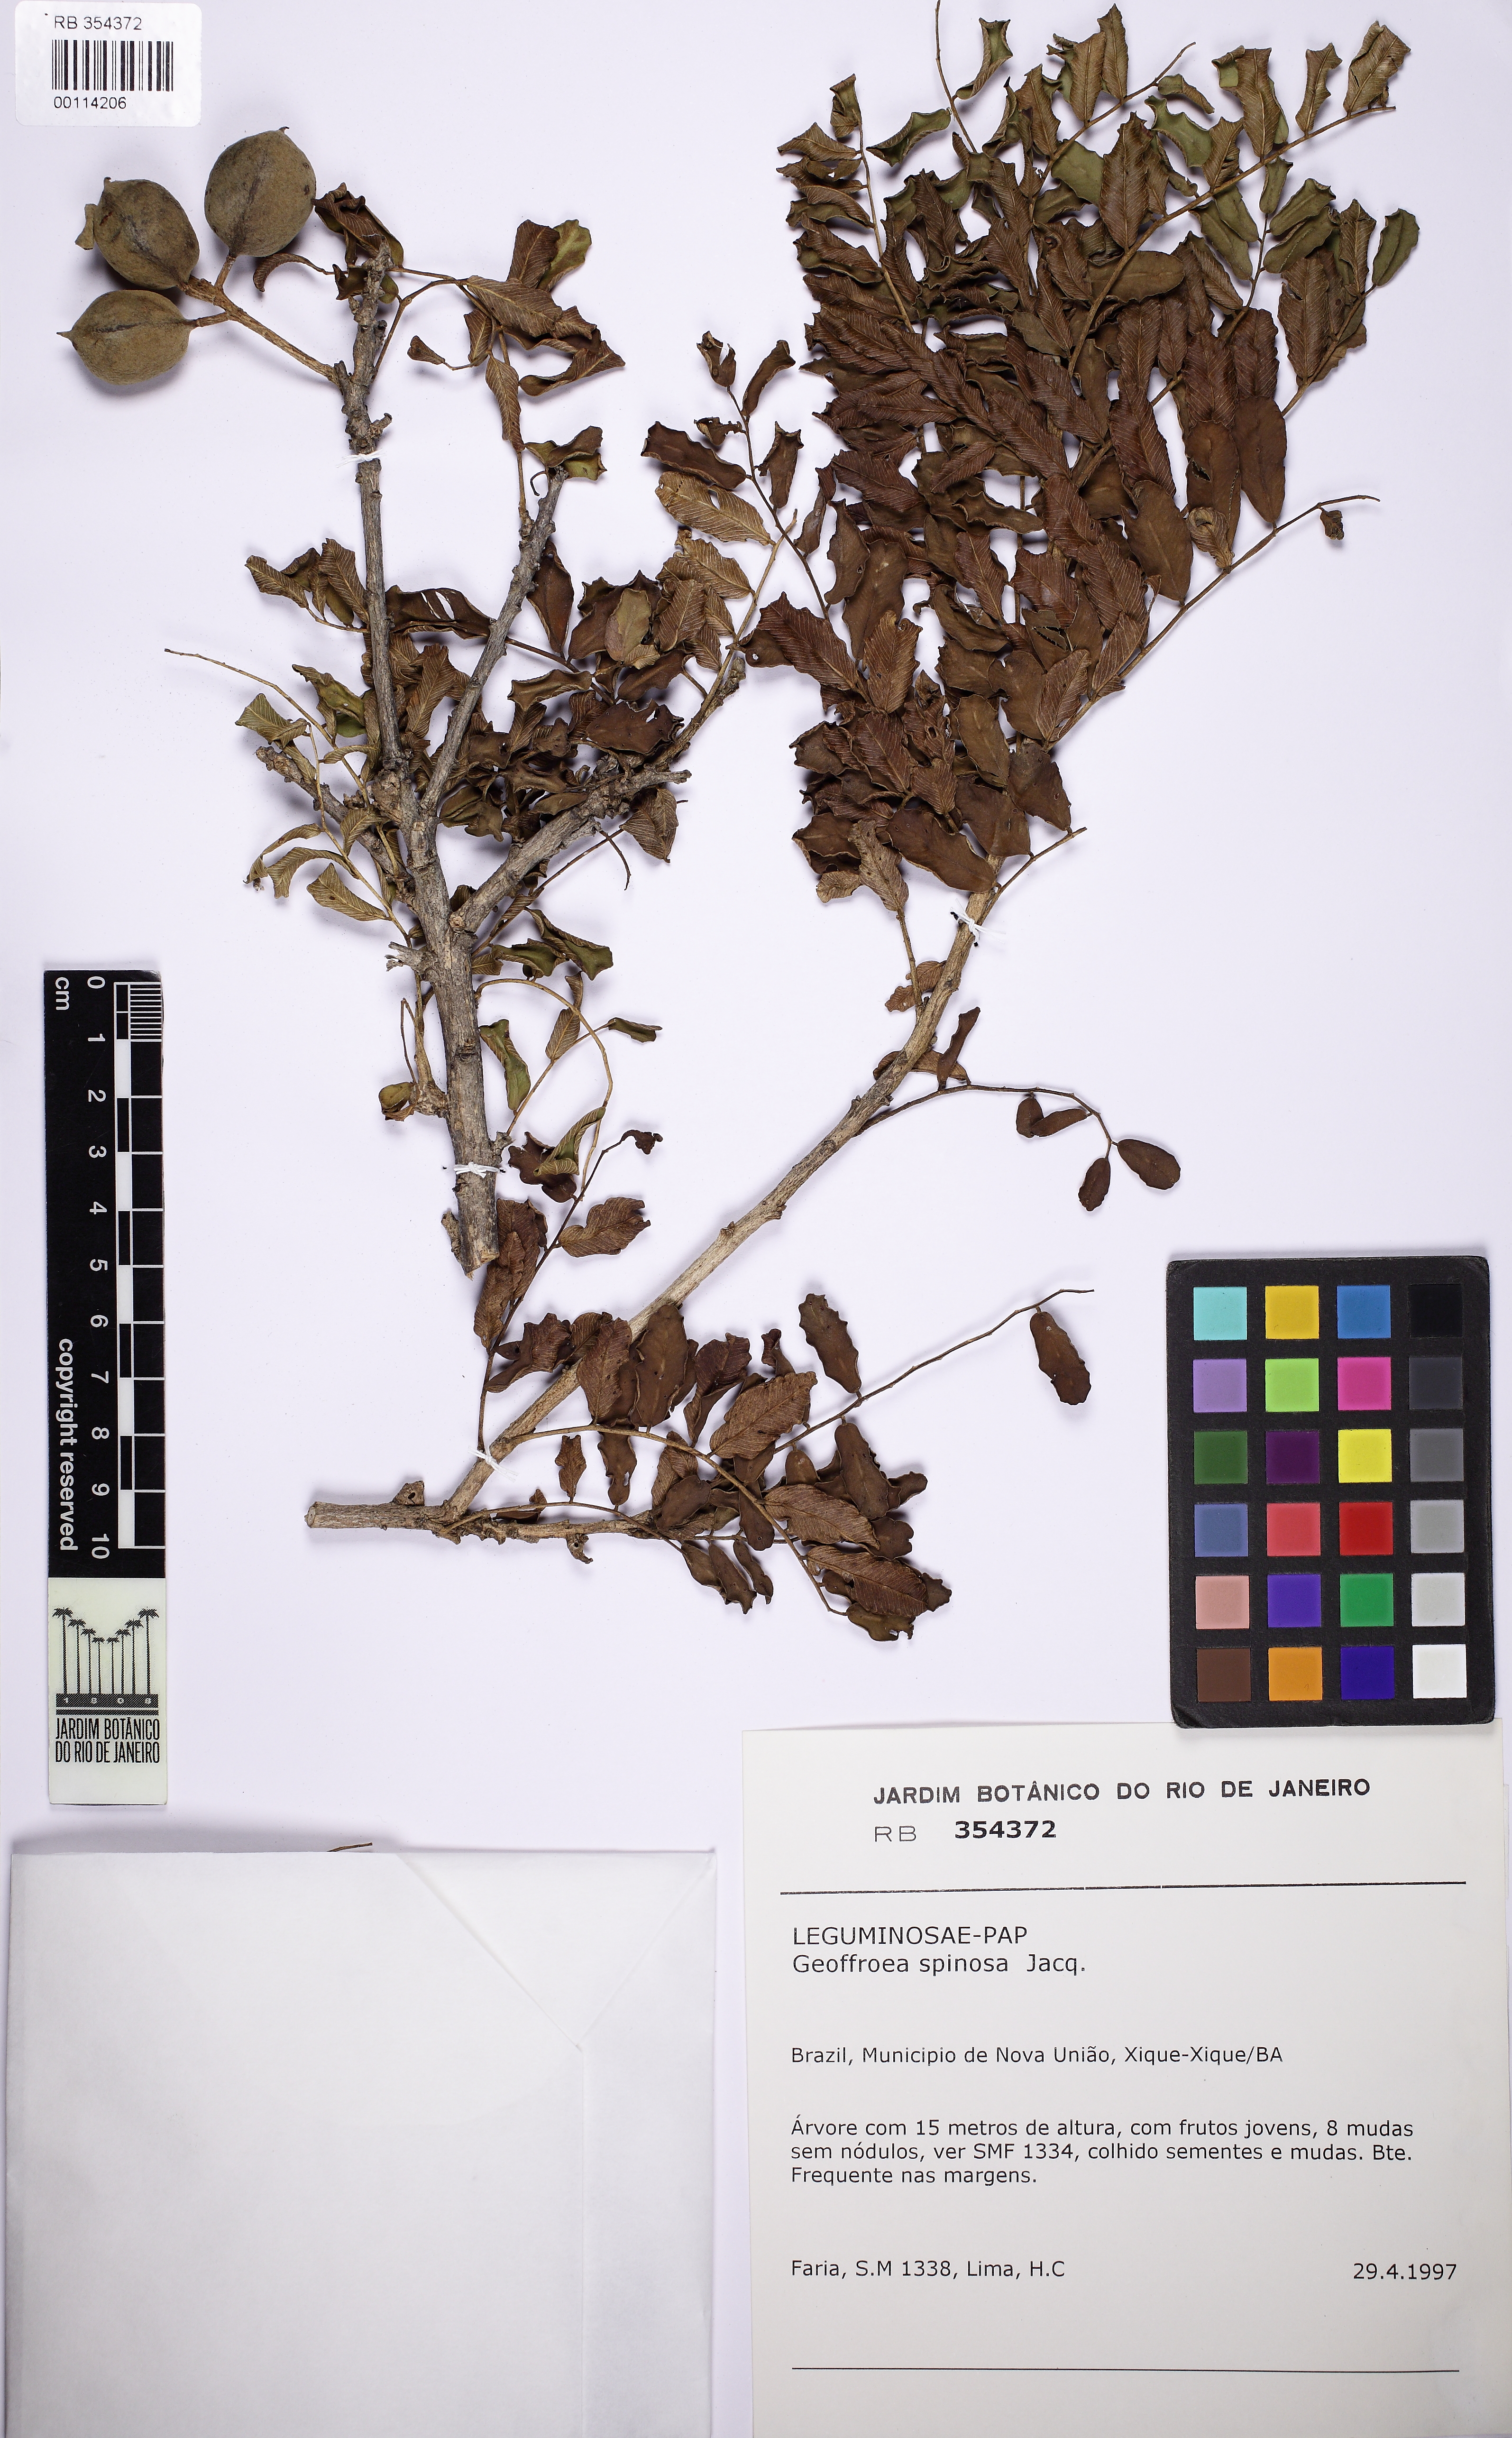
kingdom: Plantae
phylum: Tracheophyta
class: Magnoliopsida
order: Fabales
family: Fabaceae
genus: Geoffroea
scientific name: Geoffroea spinosa
